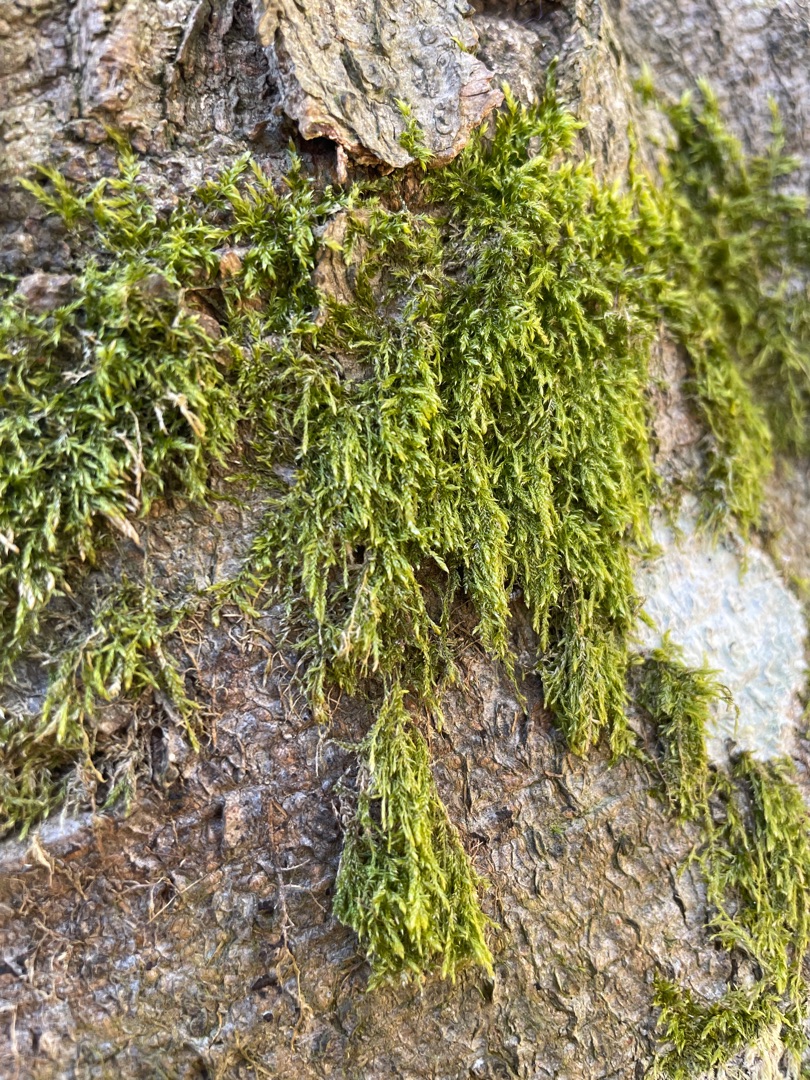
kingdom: Plantae
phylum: Bryophyta
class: Bryopsida
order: Hypnales
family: Hypnaceae
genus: Hypnum
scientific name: Hypnum
